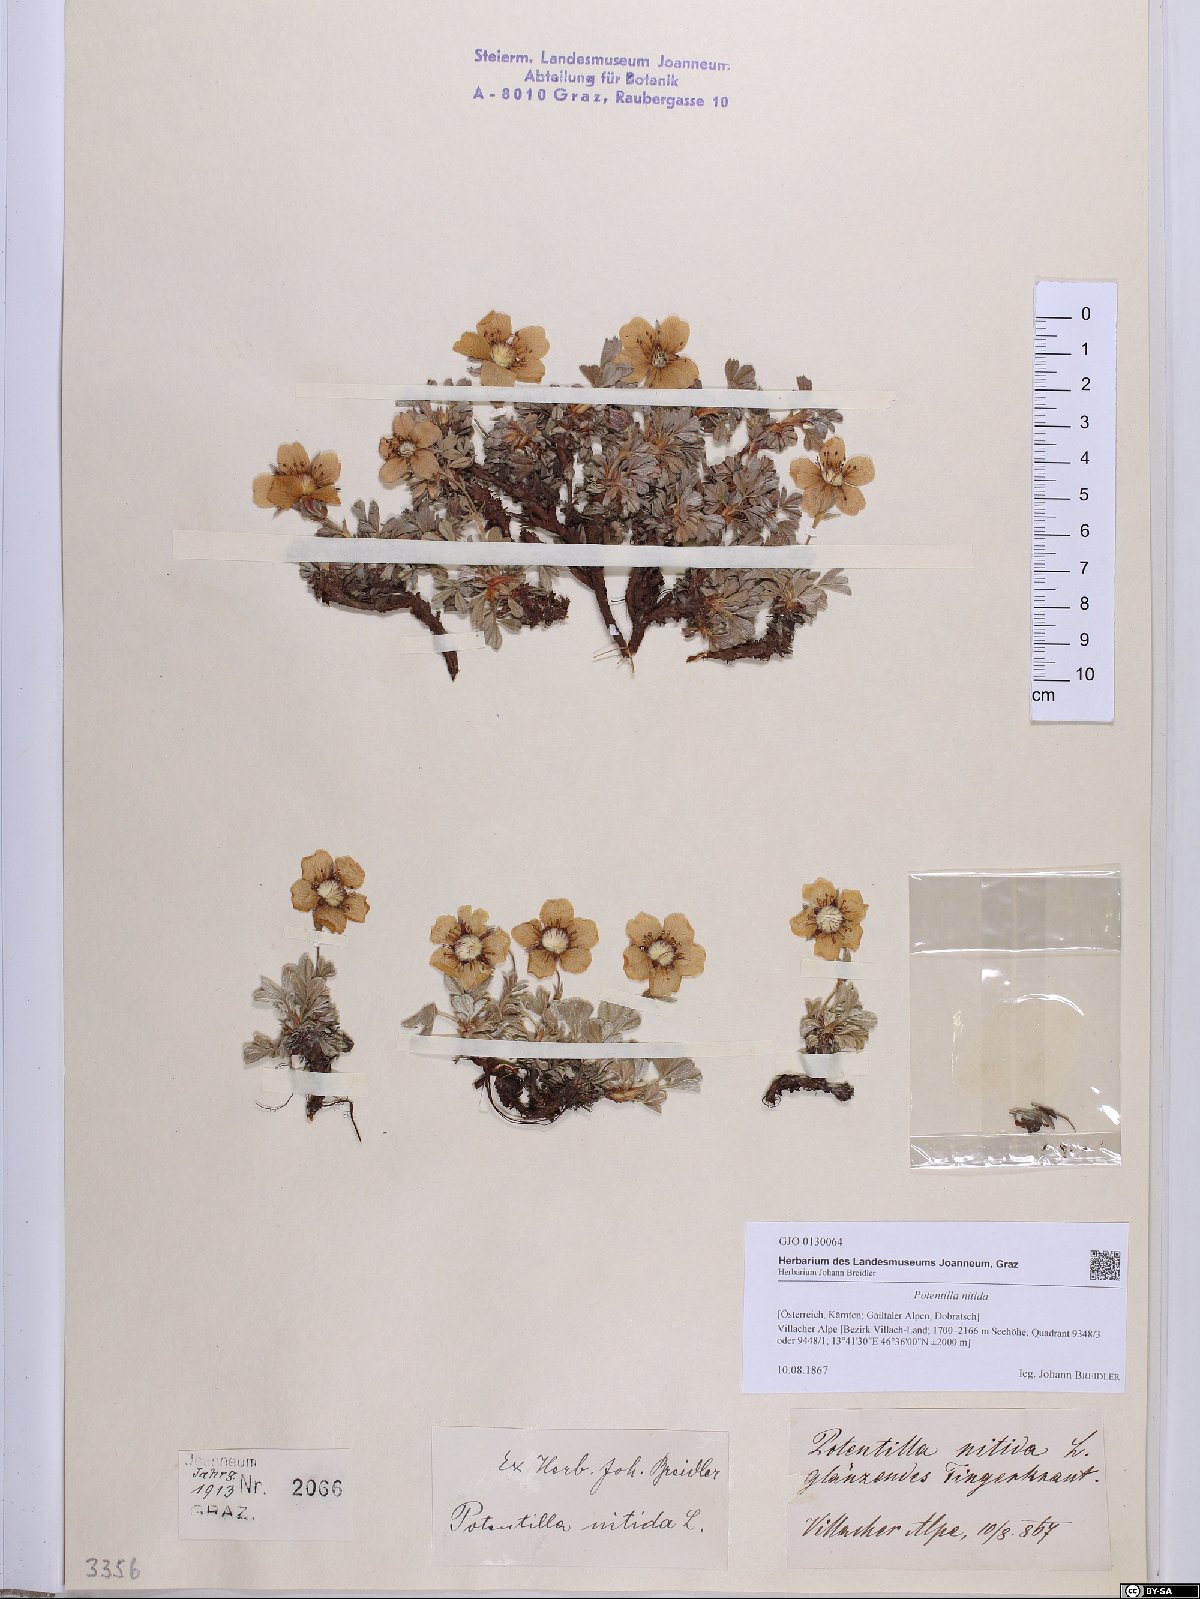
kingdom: Plantae
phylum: Tracheophyta
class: Magnoliopsida
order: Rosales
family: Rosaceae
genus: Potentilla
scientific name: Potentilla nitida
